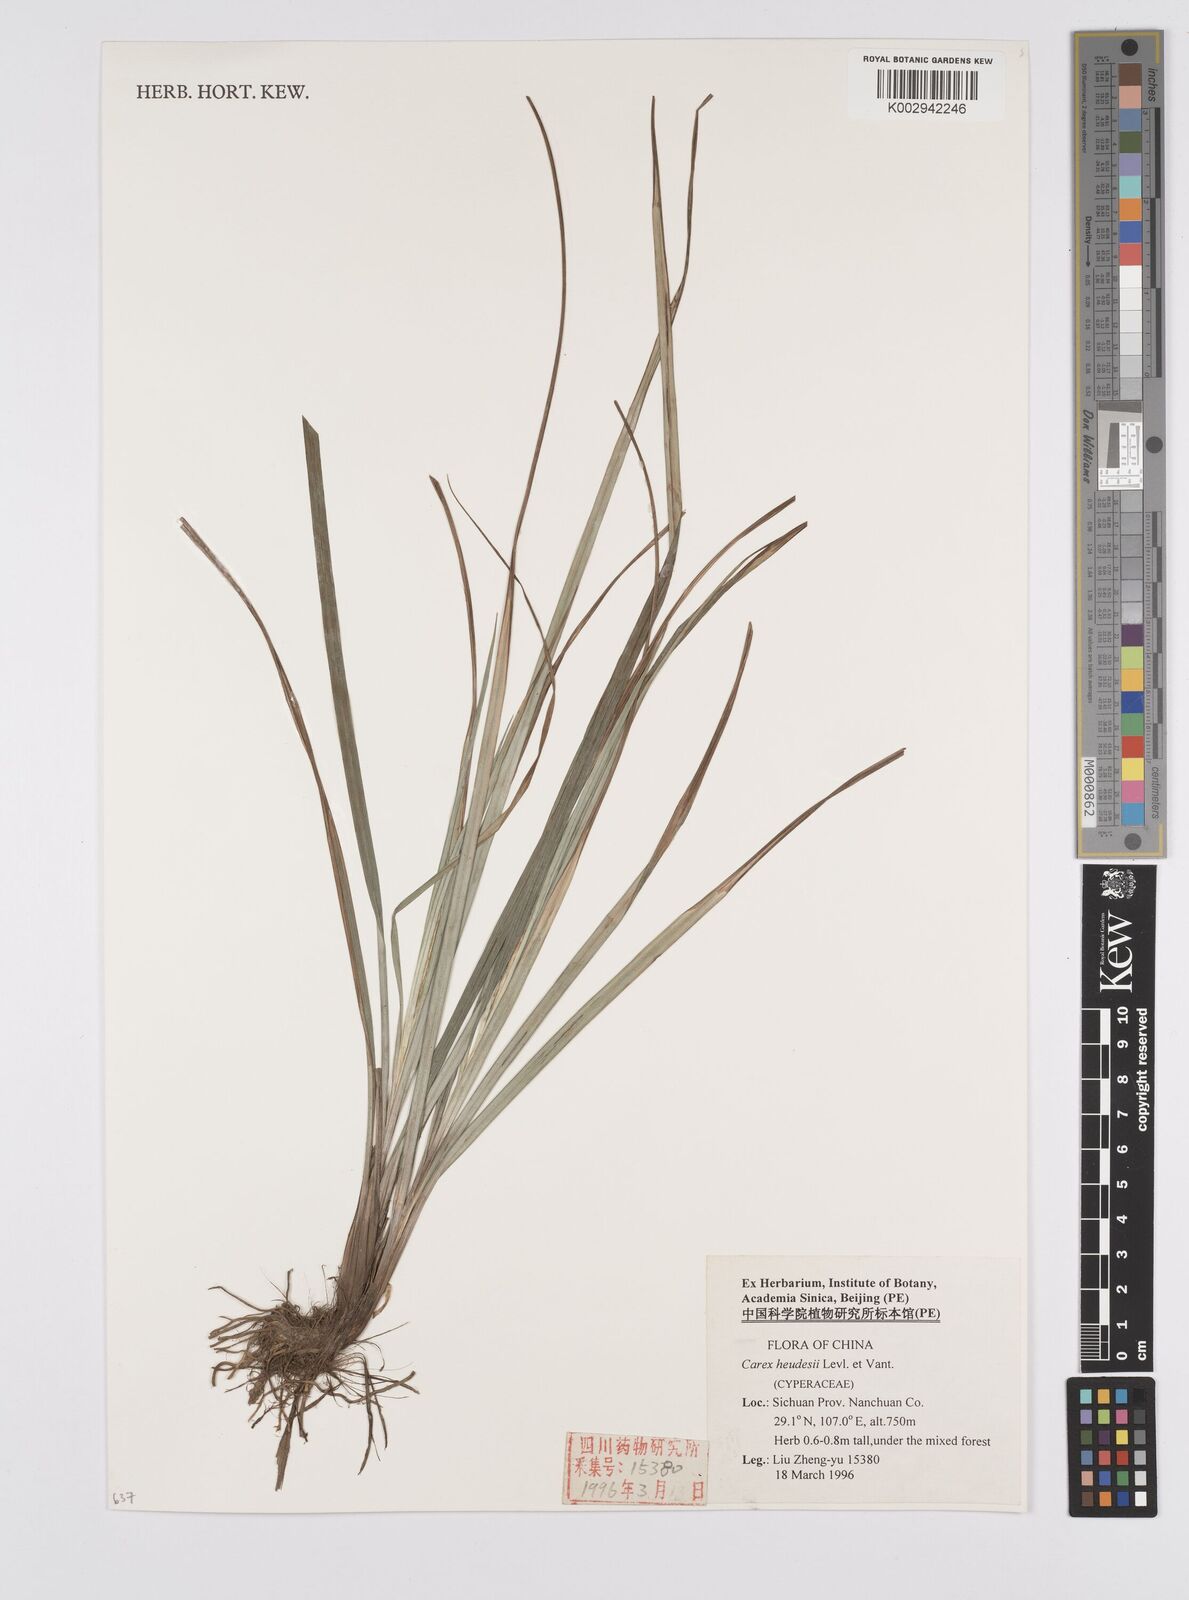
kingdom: Plantae
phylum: Tracheophyta
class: Liliopsida
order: Poales
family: Cyperaceae
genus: Carex
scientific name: Carex heudesii
